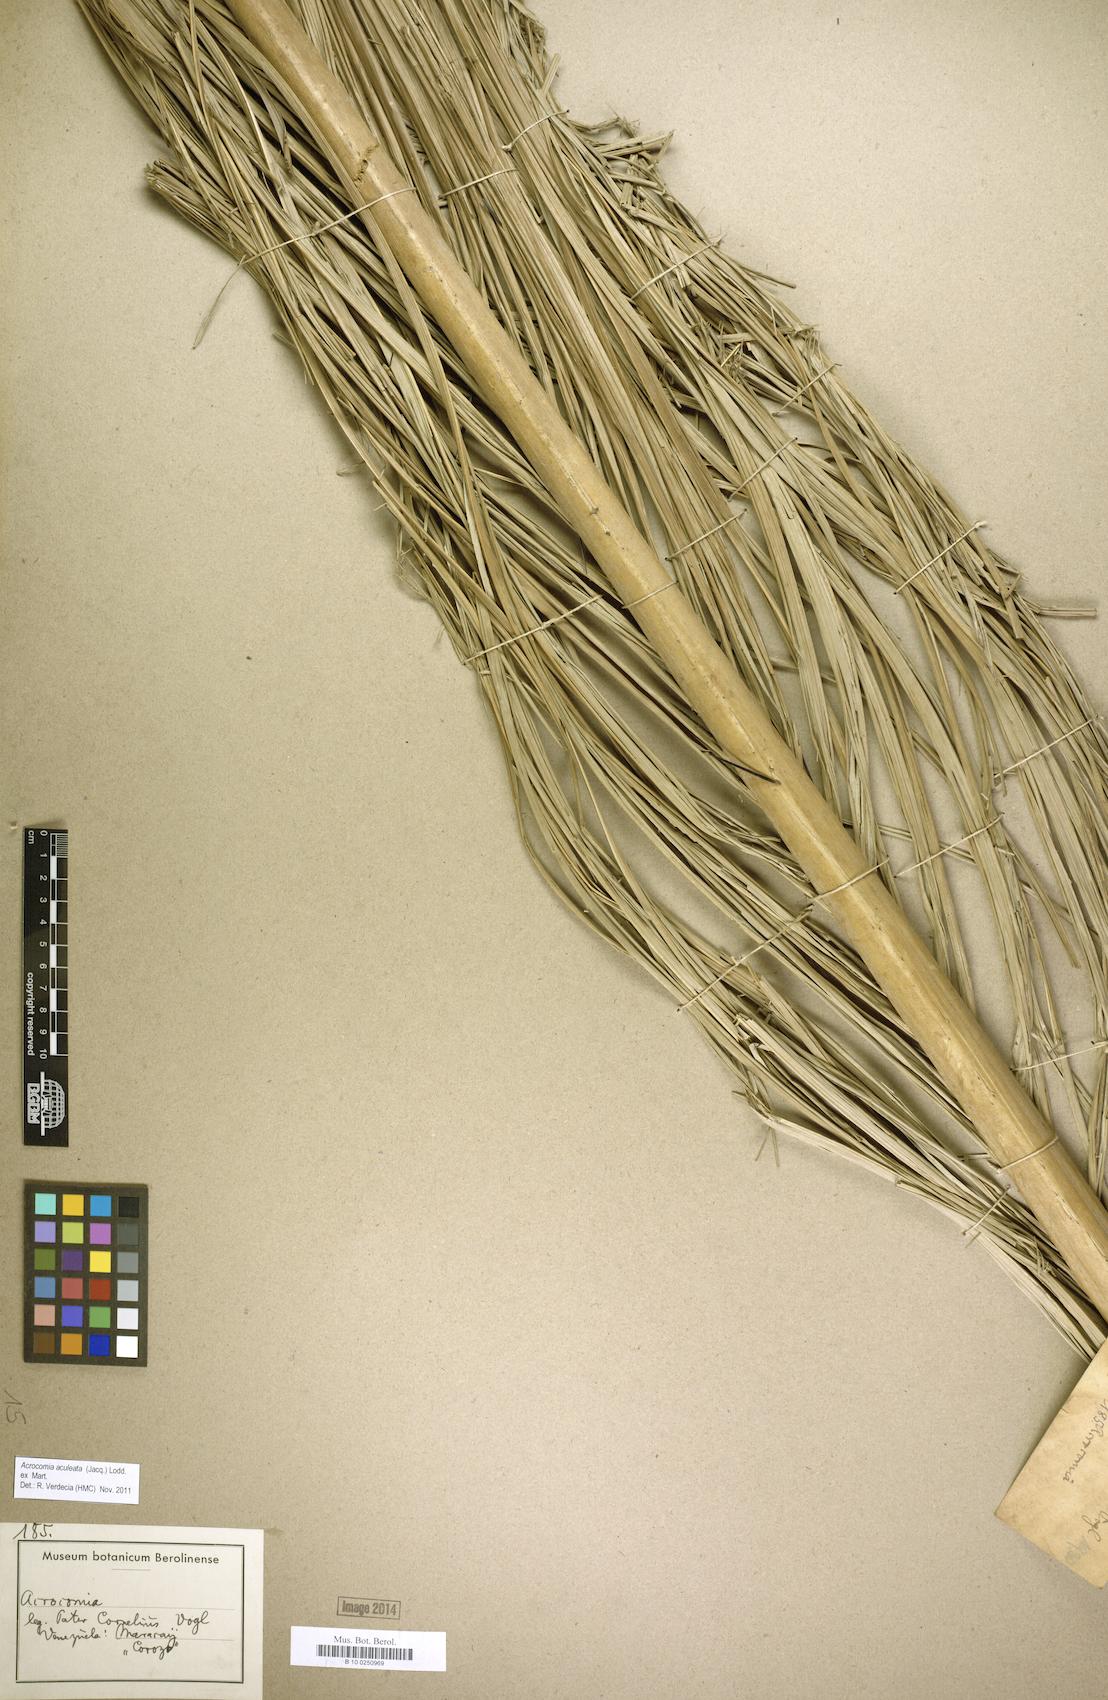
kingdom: Plantae
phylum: Tracheophyta
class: Liliopsida
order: Arecales
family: Arecaceae
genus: Acrocomia
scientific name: Acrocomia aculeata
